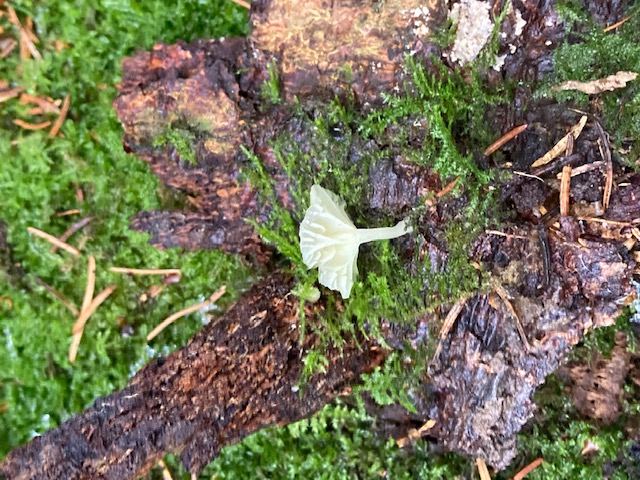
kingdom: Fungi
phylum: Basidiomycota
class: Agaricomycetes
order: Agaricales
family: Hygrophoraceae
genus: Chrysomphalina
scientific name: Chrysomphalina grossula
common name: stød-gyldenblad
